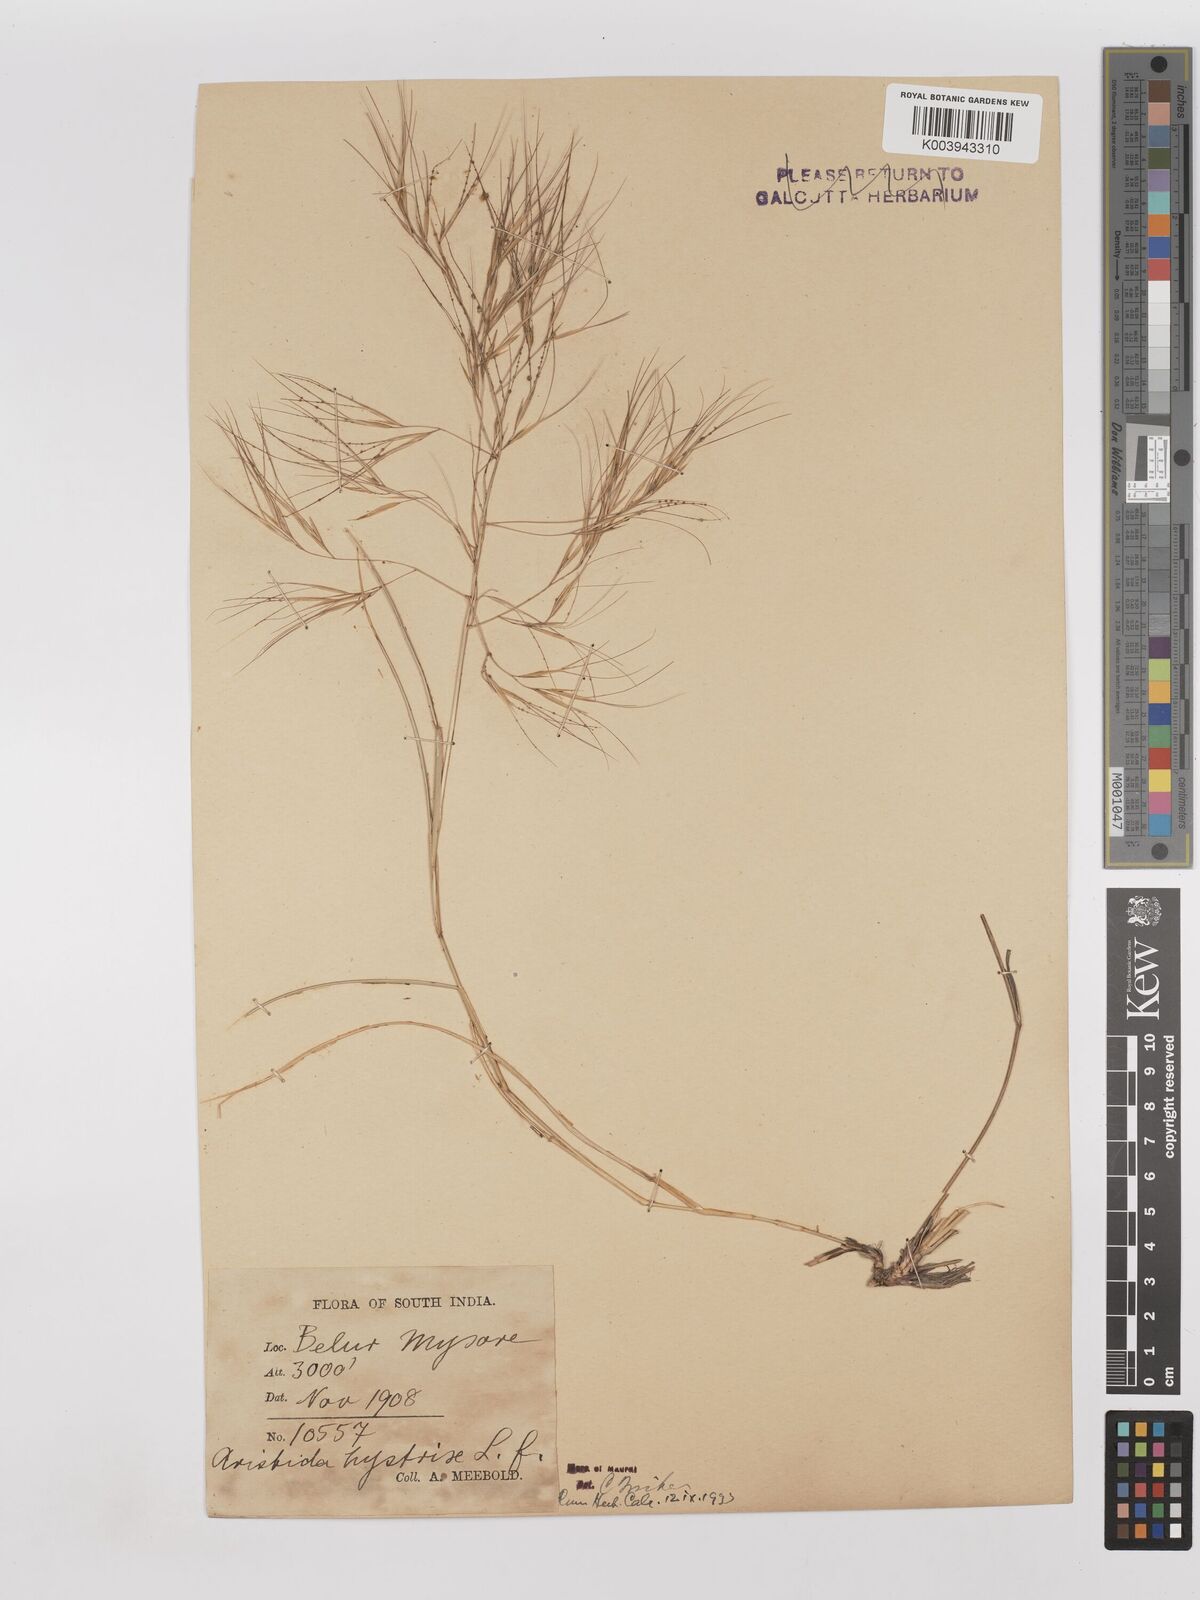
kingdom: Plantae
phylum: Tracheophyta
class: Liliopsida
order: Poales
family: Poaceae
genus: Aristida
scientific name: Aristida hystrix
